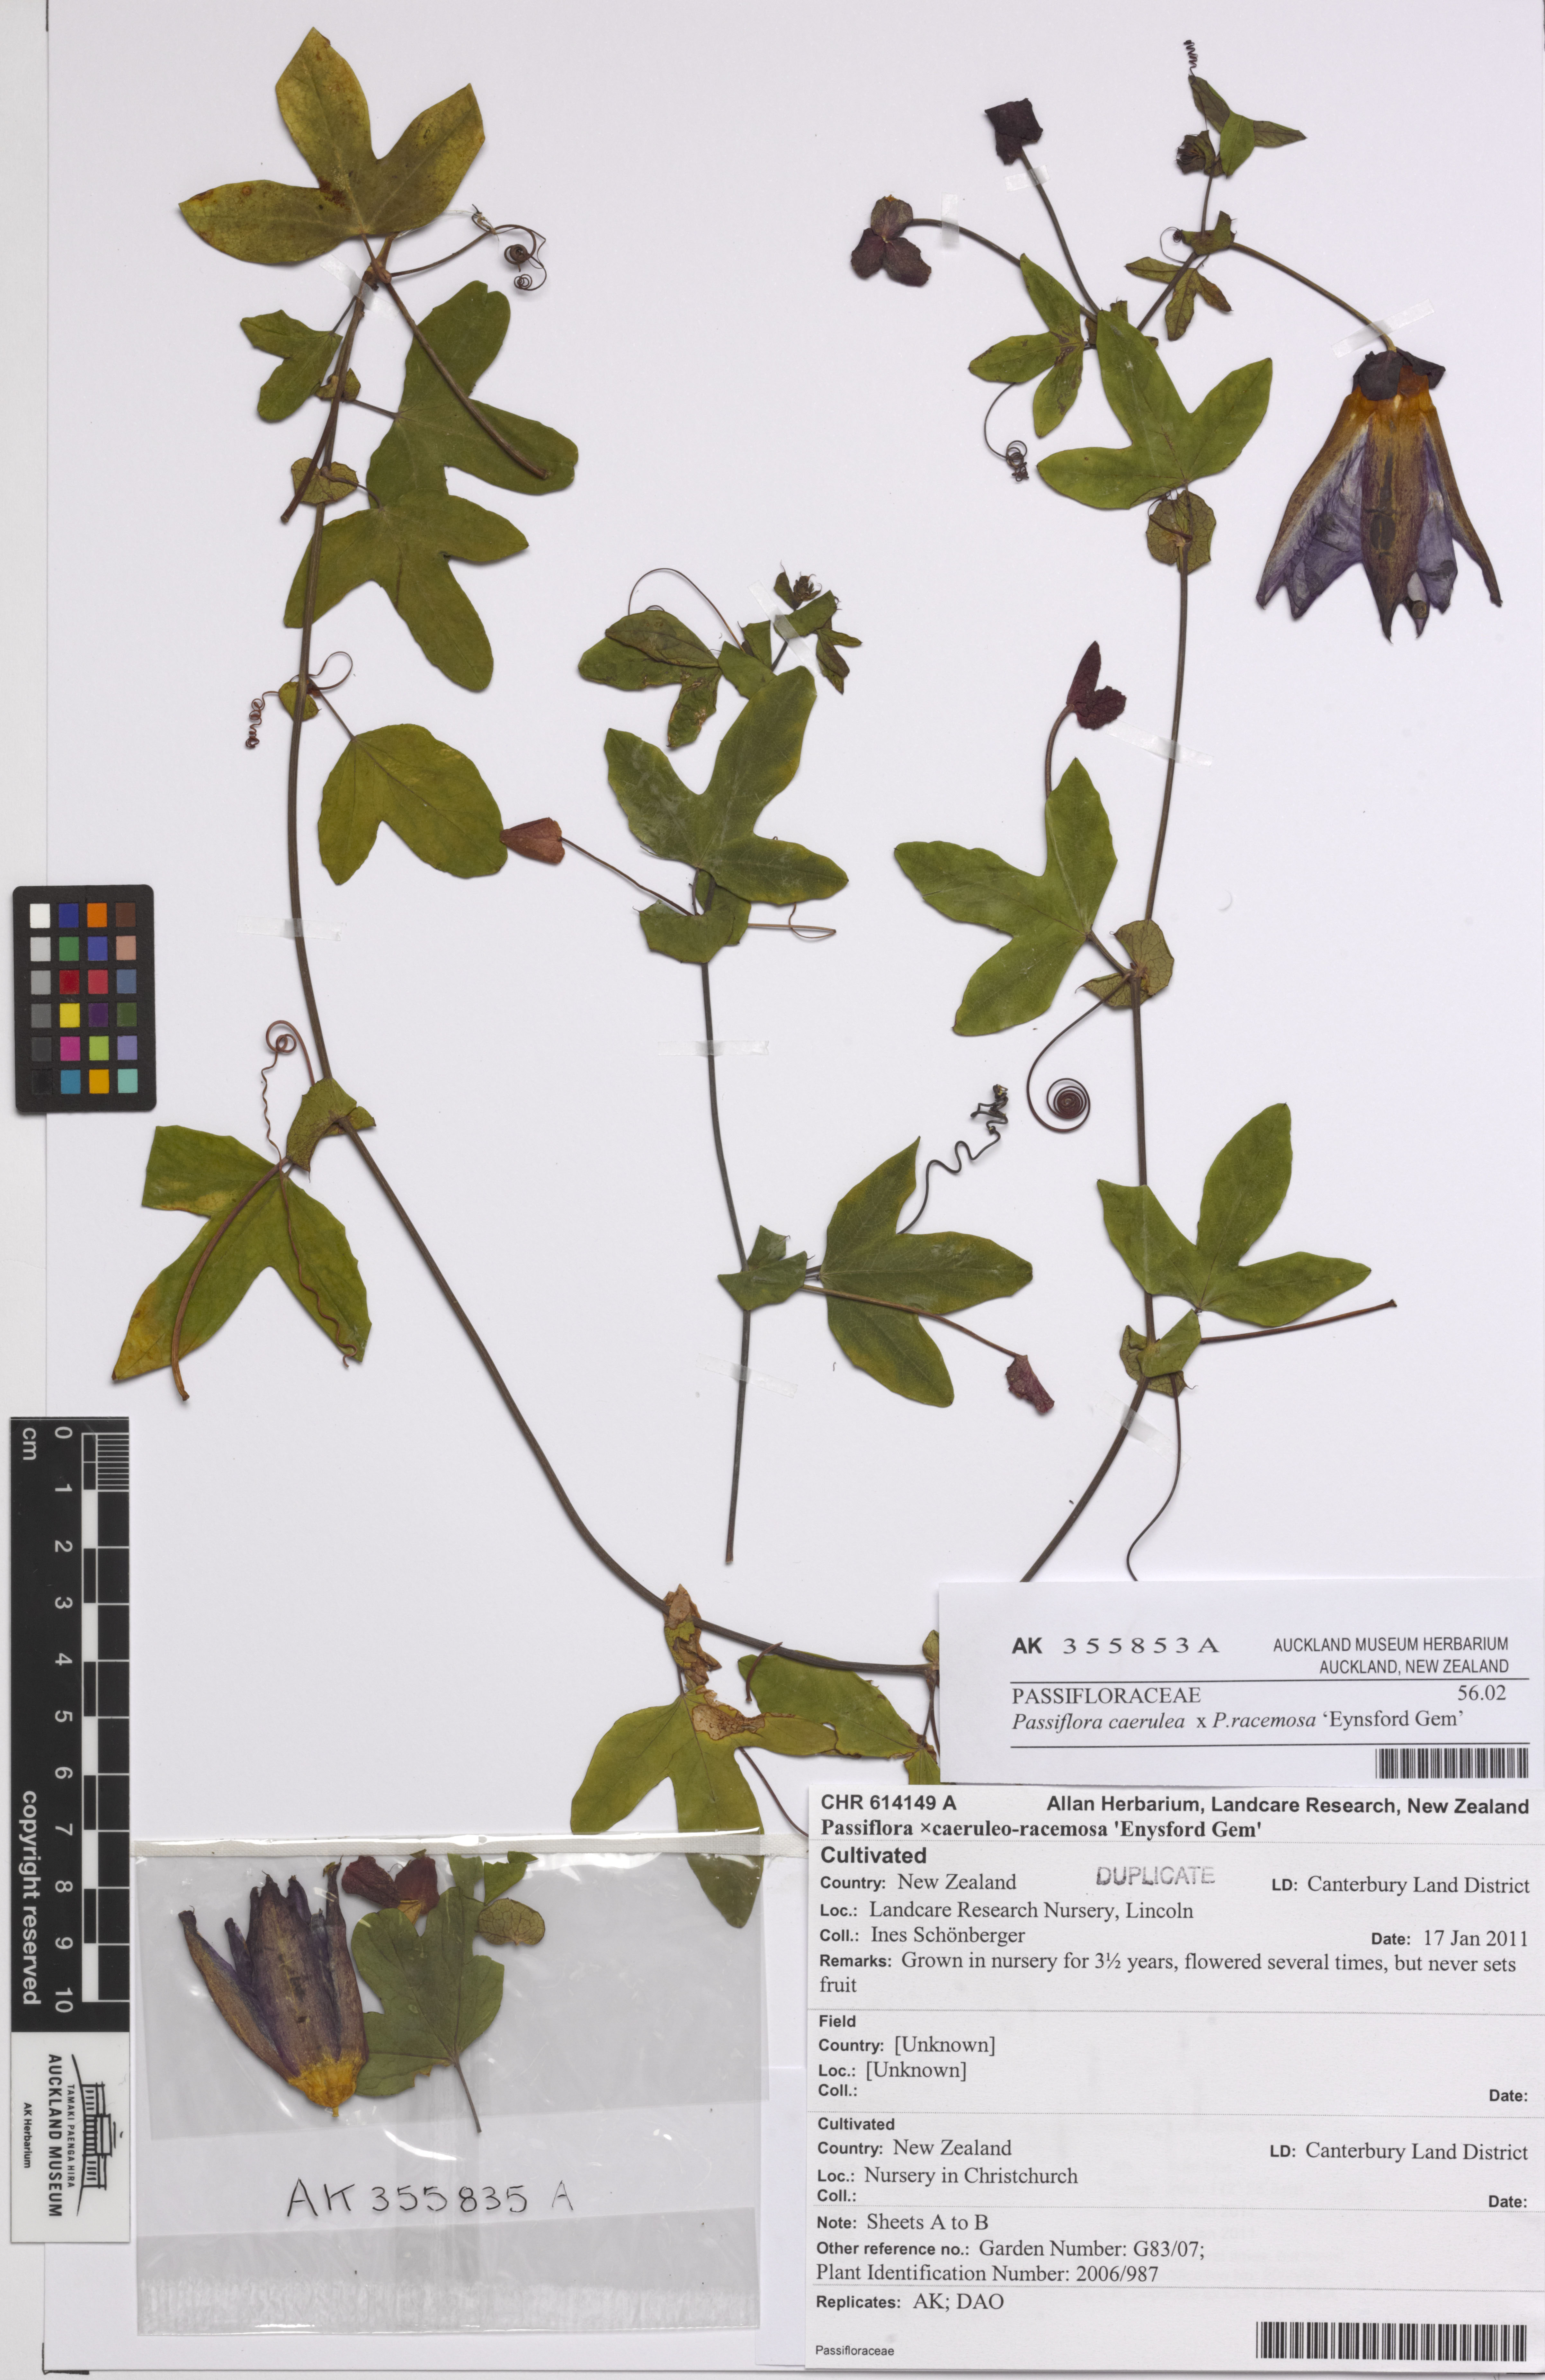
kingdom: Plantae
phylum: Tracheophyta
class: Magnoliopsida
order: Malpighiales
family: Passifloraceae
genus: Passiflora
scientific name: Passiflora violacea
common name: Violet passionflower
